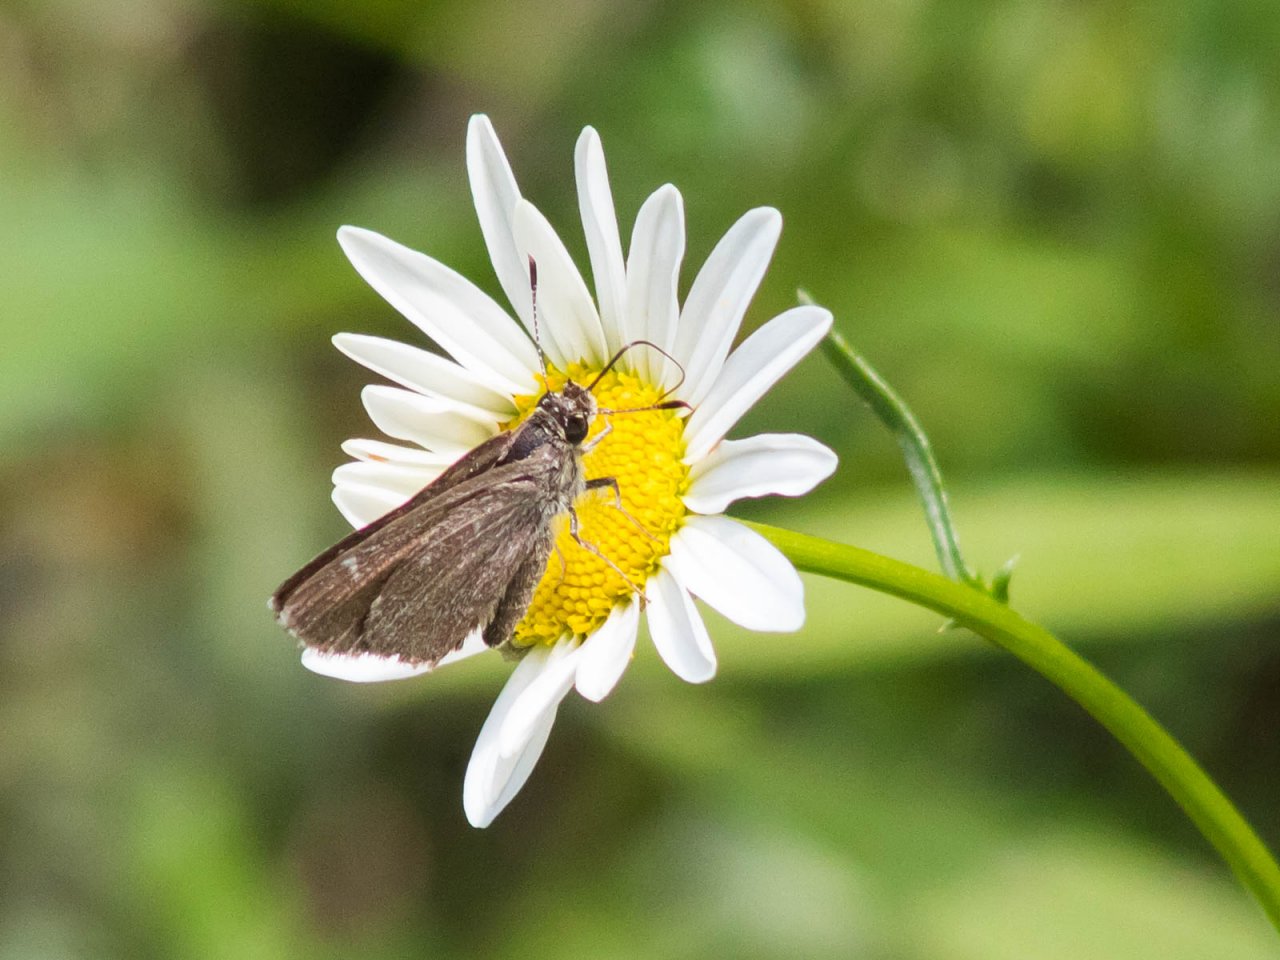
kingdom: Animalia
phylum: Arthropoda
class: Insecta
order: Lepidoptera
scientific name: Lepidoptera
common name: Butterflies
